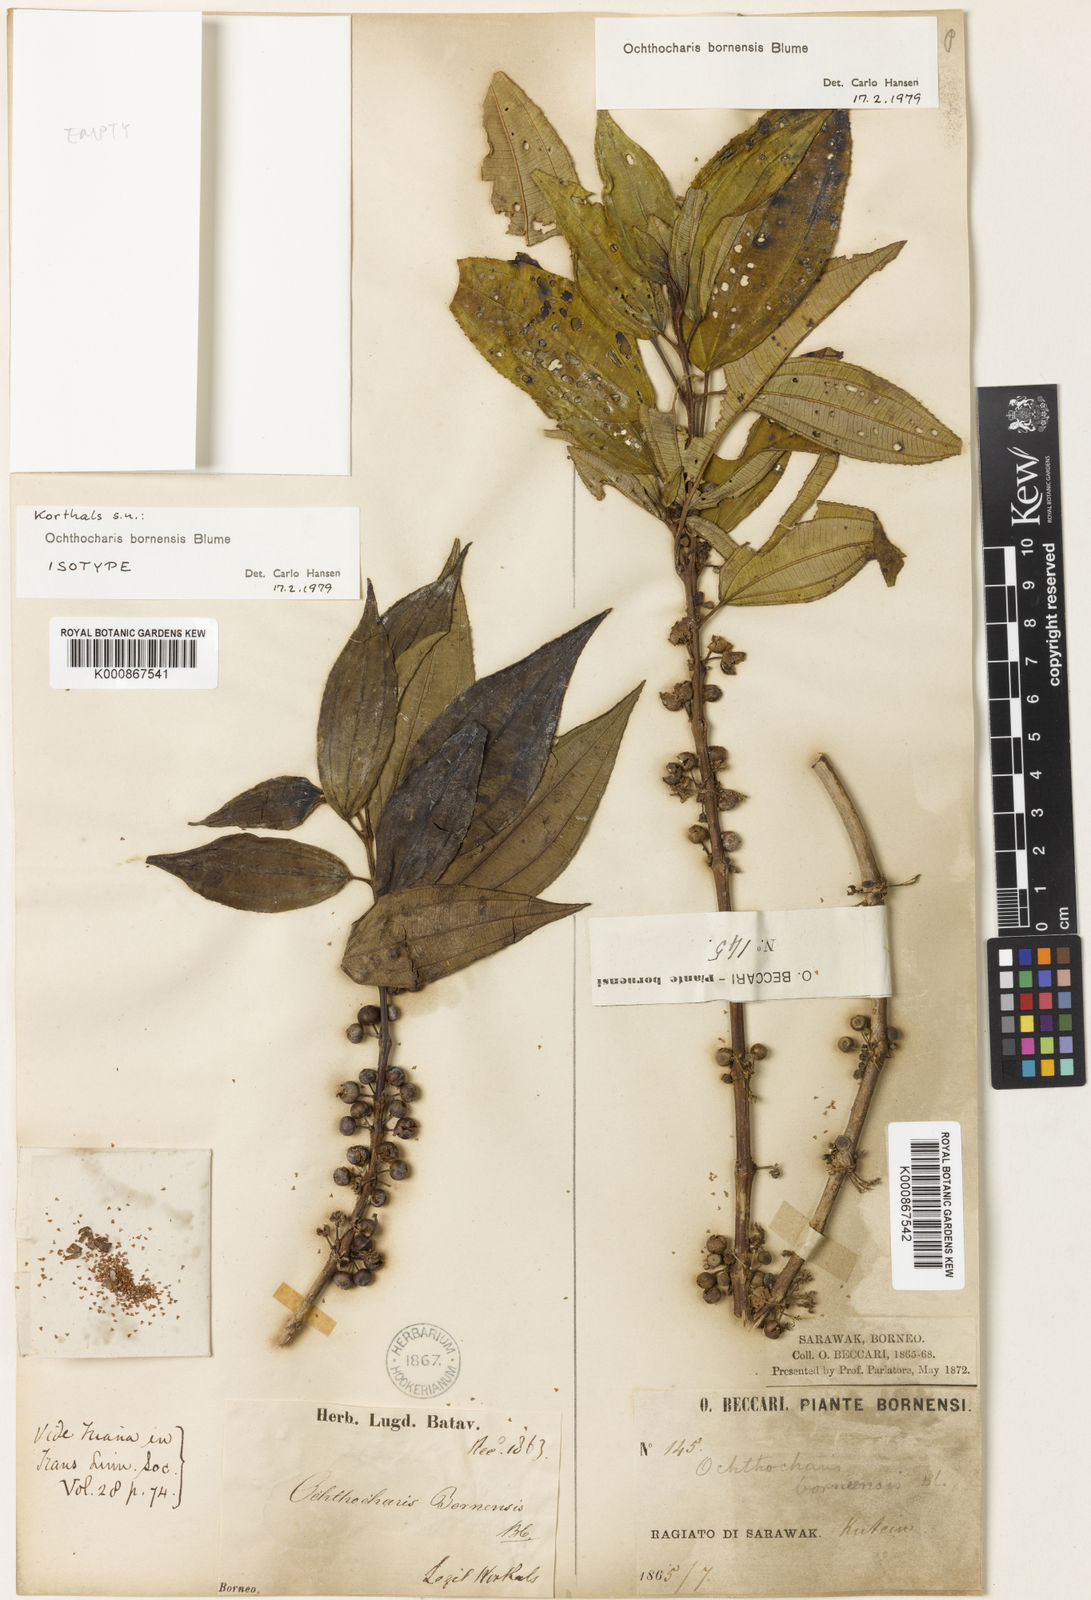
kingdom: Plantae
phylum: Tracheophyta
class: Magnoliopsida
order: Myrtales
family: Melastomataceae
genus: Ochthocharis
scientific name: Ochthocharis bornensis
